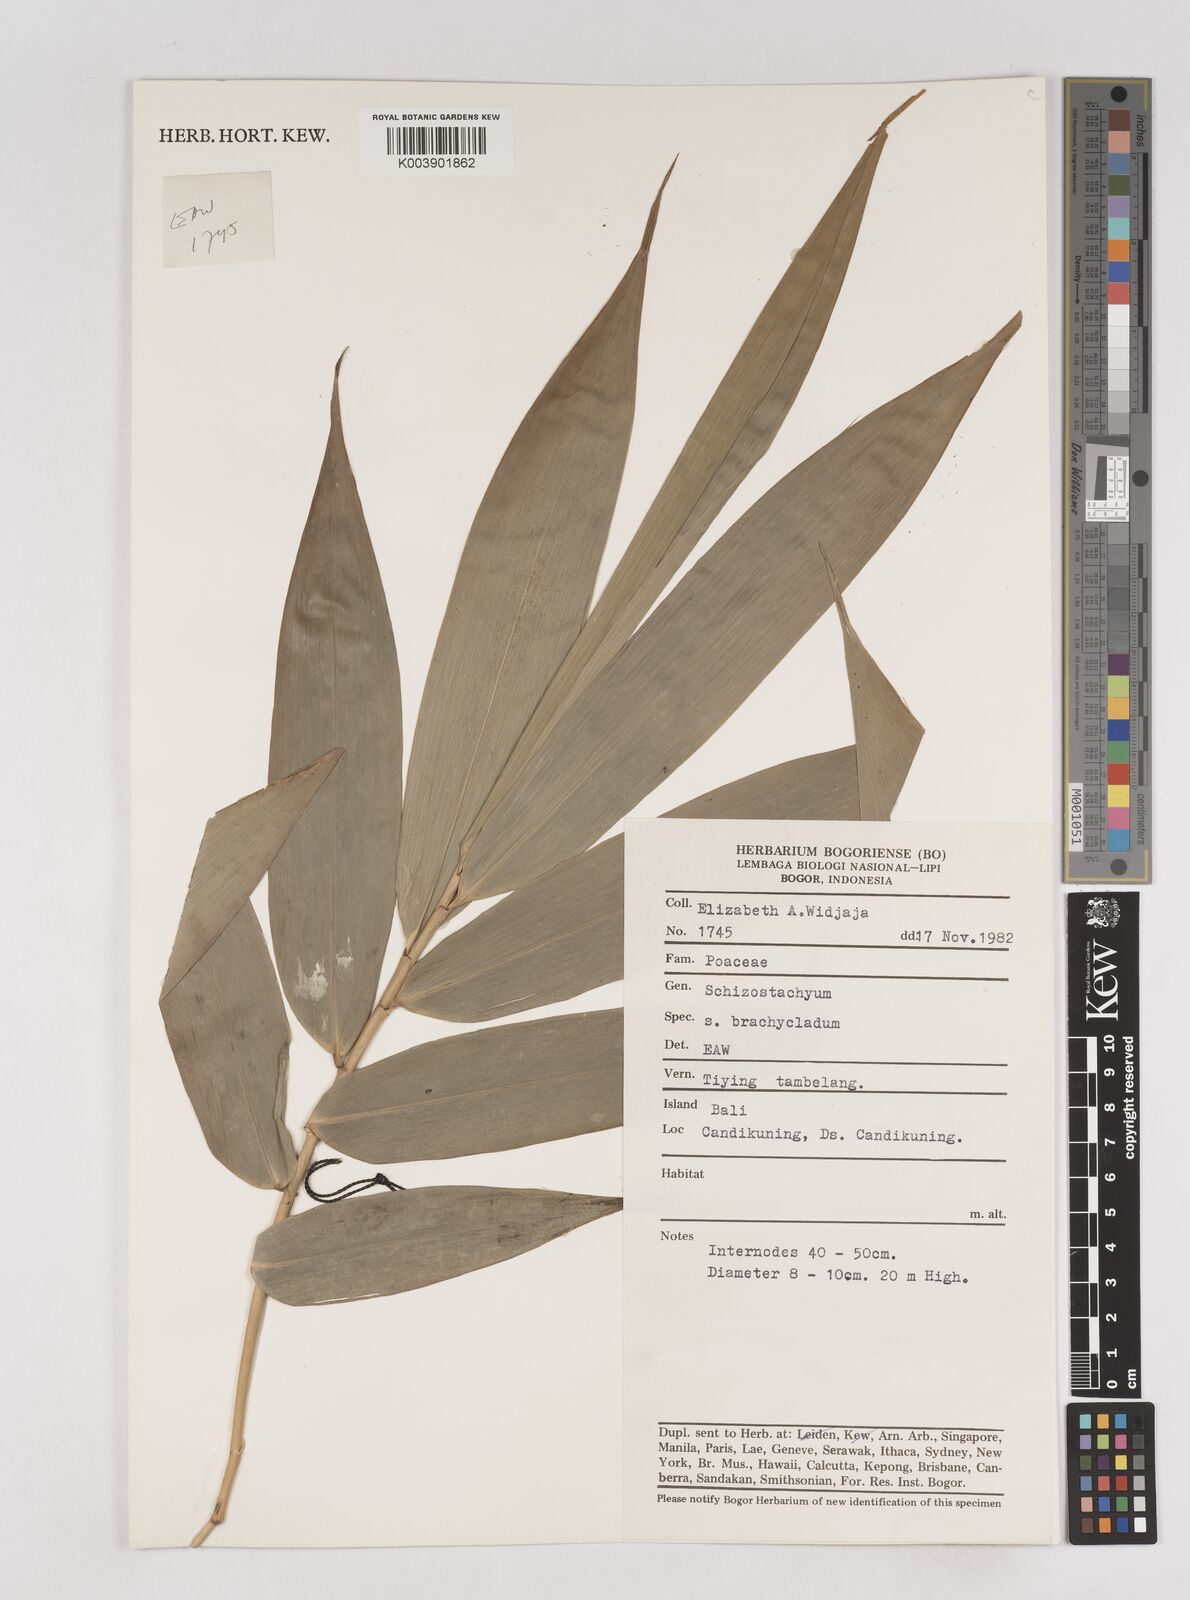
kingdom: Plantae
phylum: Tracheophyta
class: Liliopsida
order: Poales
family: Poaceae
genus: Schizostachyum
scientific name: Schizostachyum brachycladum
